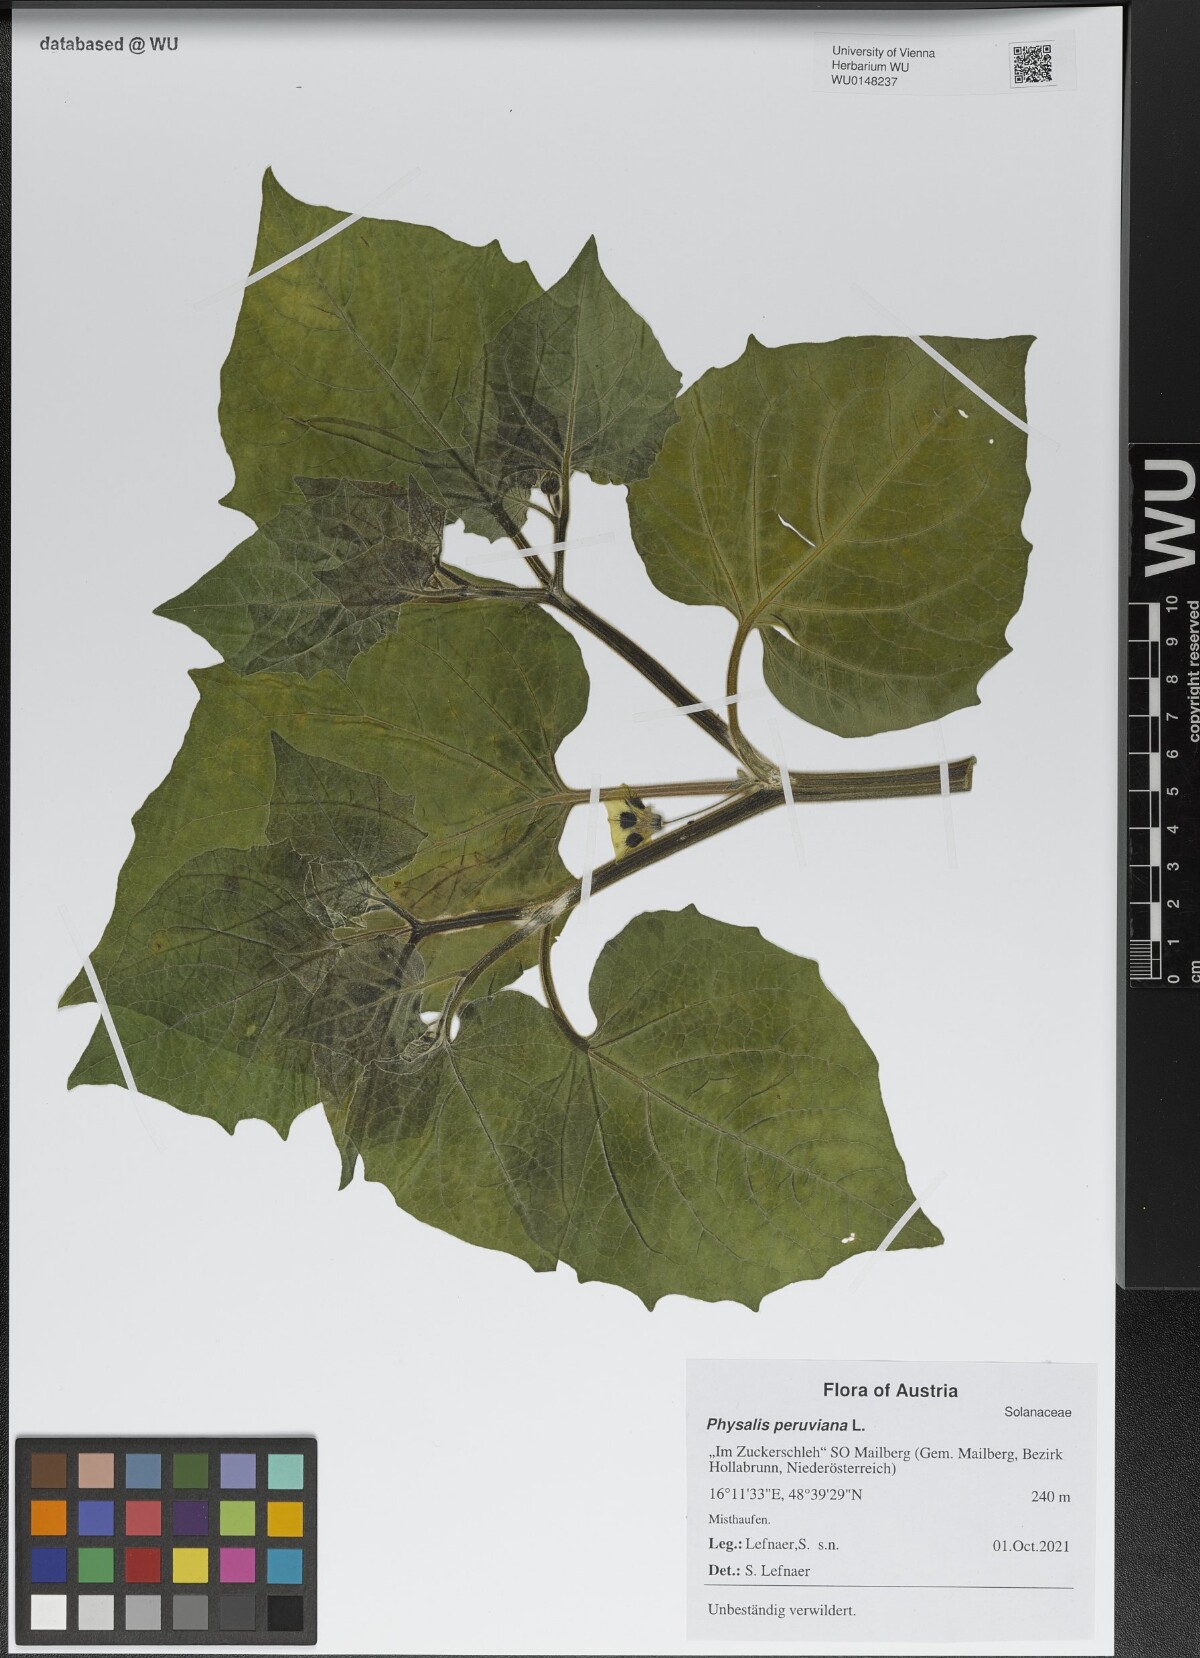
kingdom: Plantae
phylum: Tracheophyta
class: Magnoliopsida
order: Solanales
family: Solanaceae
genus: Physalis
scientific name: Physalis peruviana
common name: Cape-gooseberry
